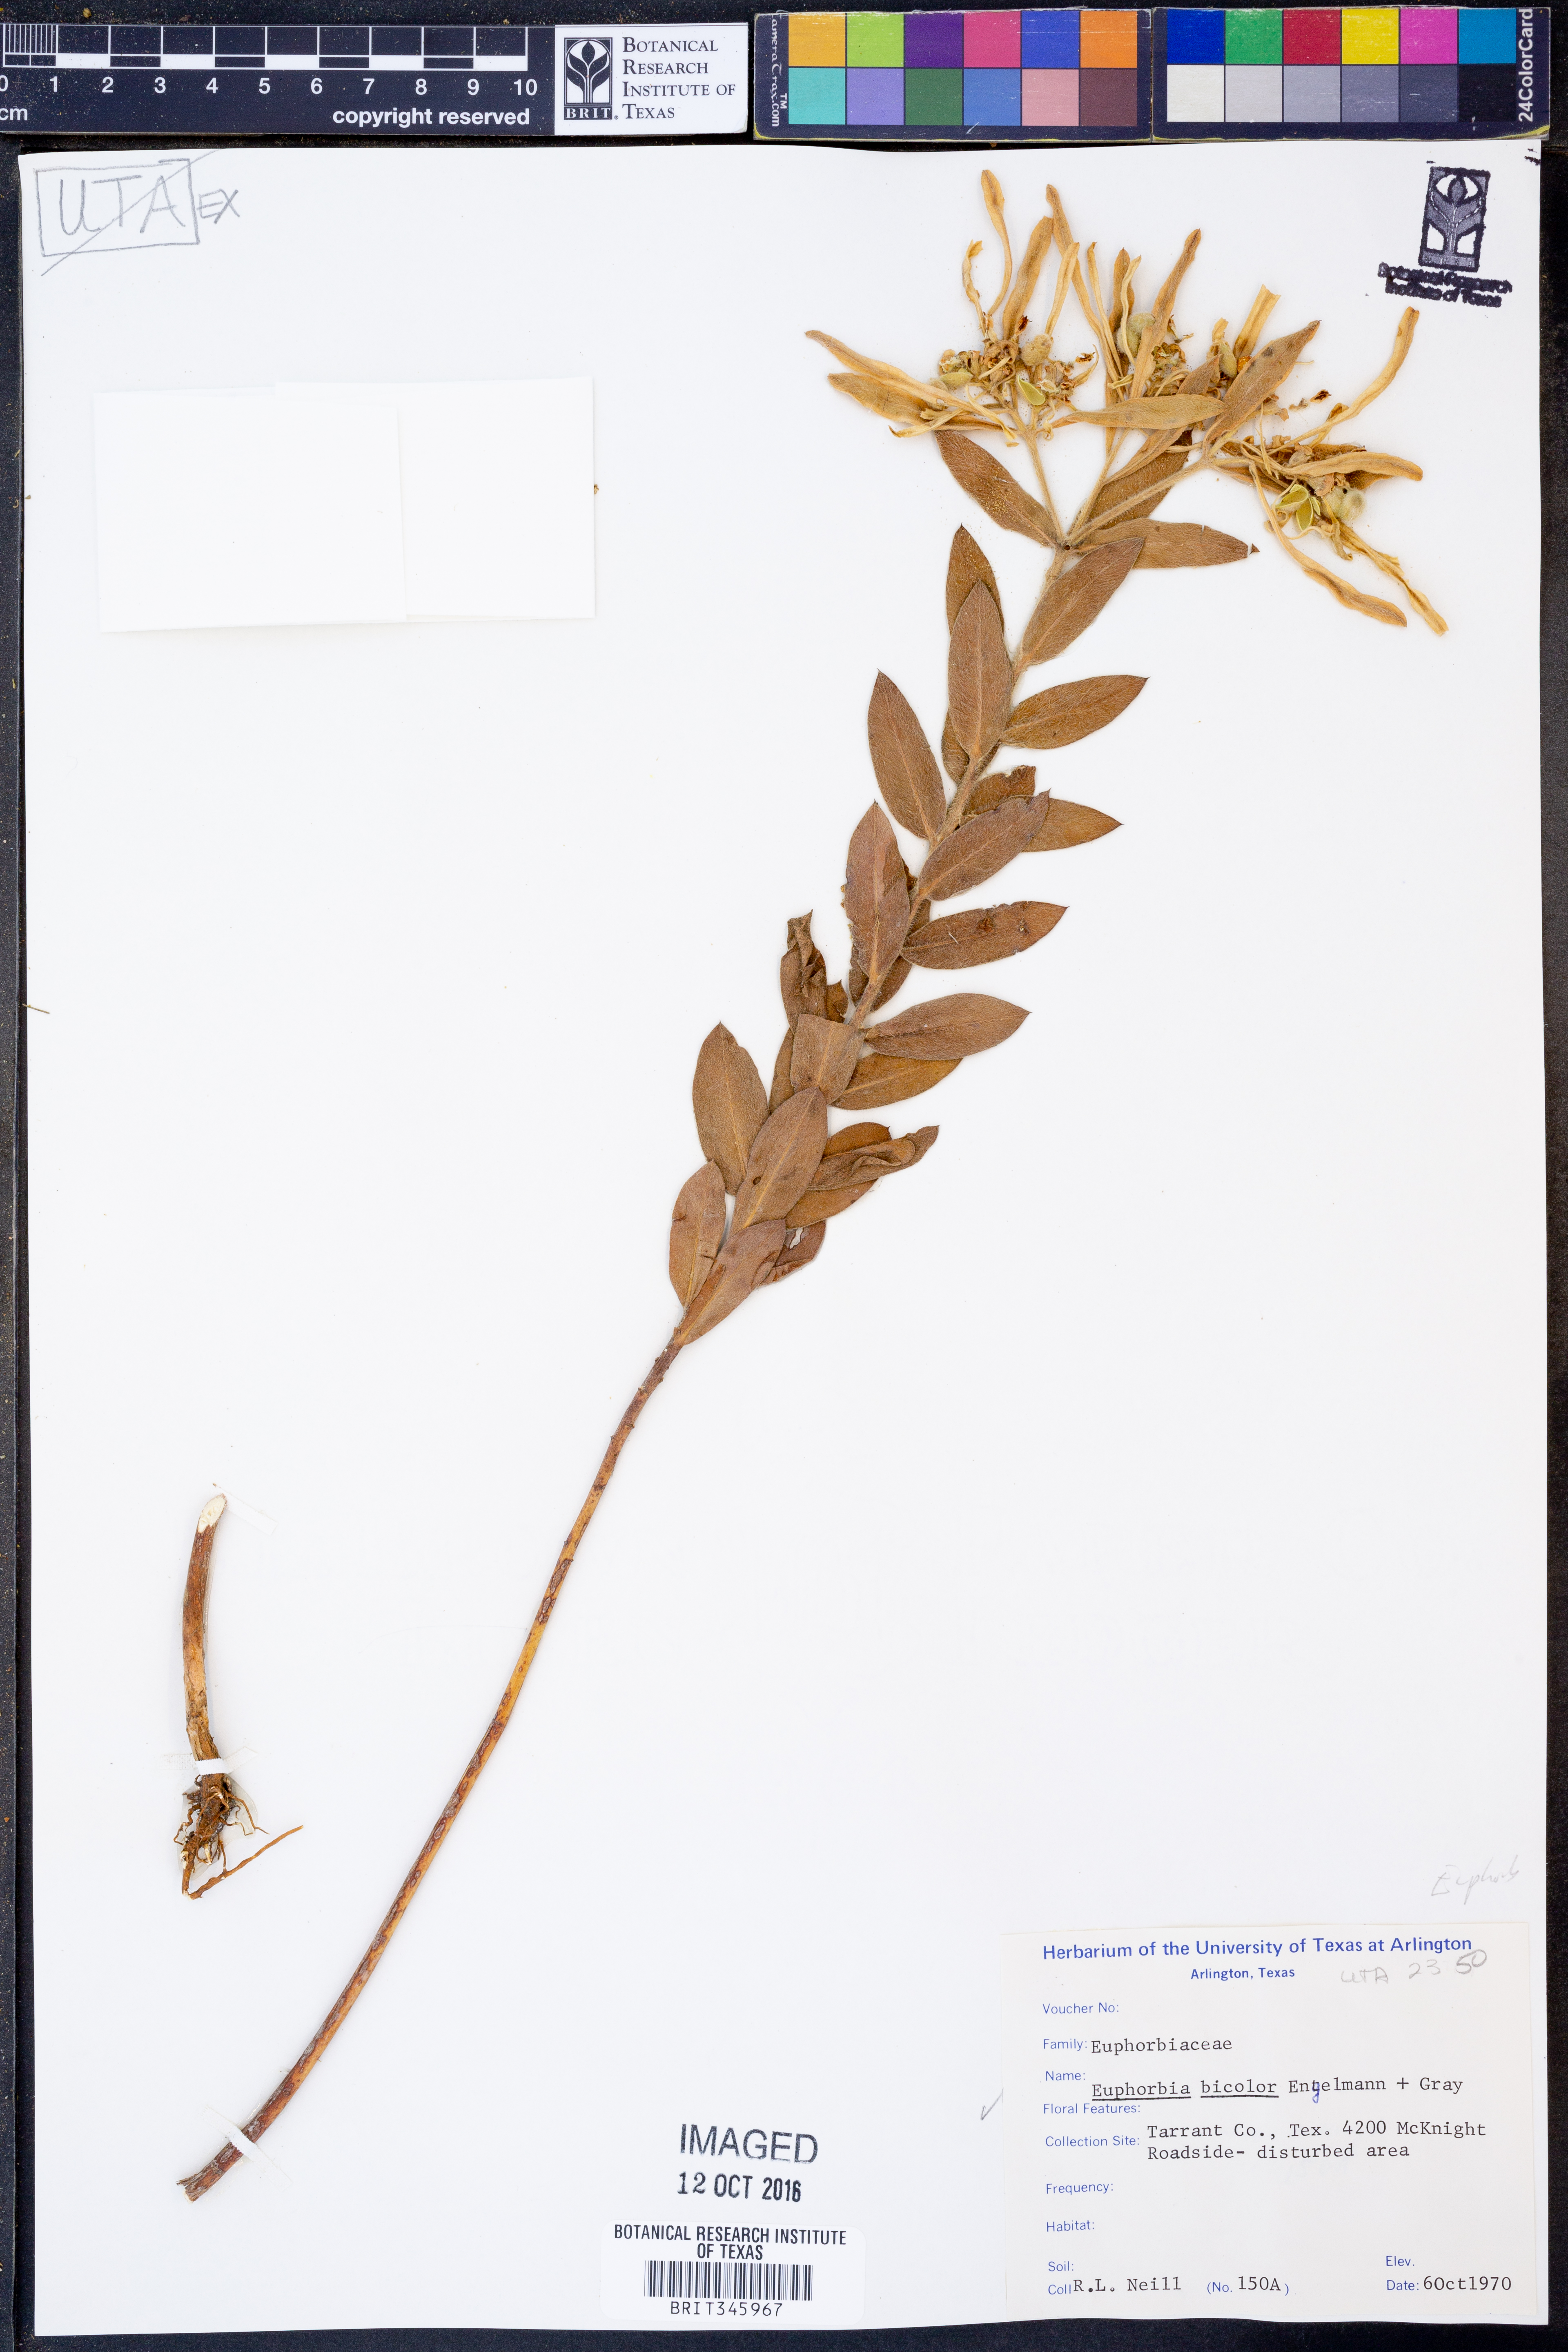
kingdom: Plantae
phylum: Tracheophyta
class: Magnoliopsida
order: Malpighiales
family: Euphorbiaceae
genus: Euphorbia
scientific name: Euphorbia bicolor
